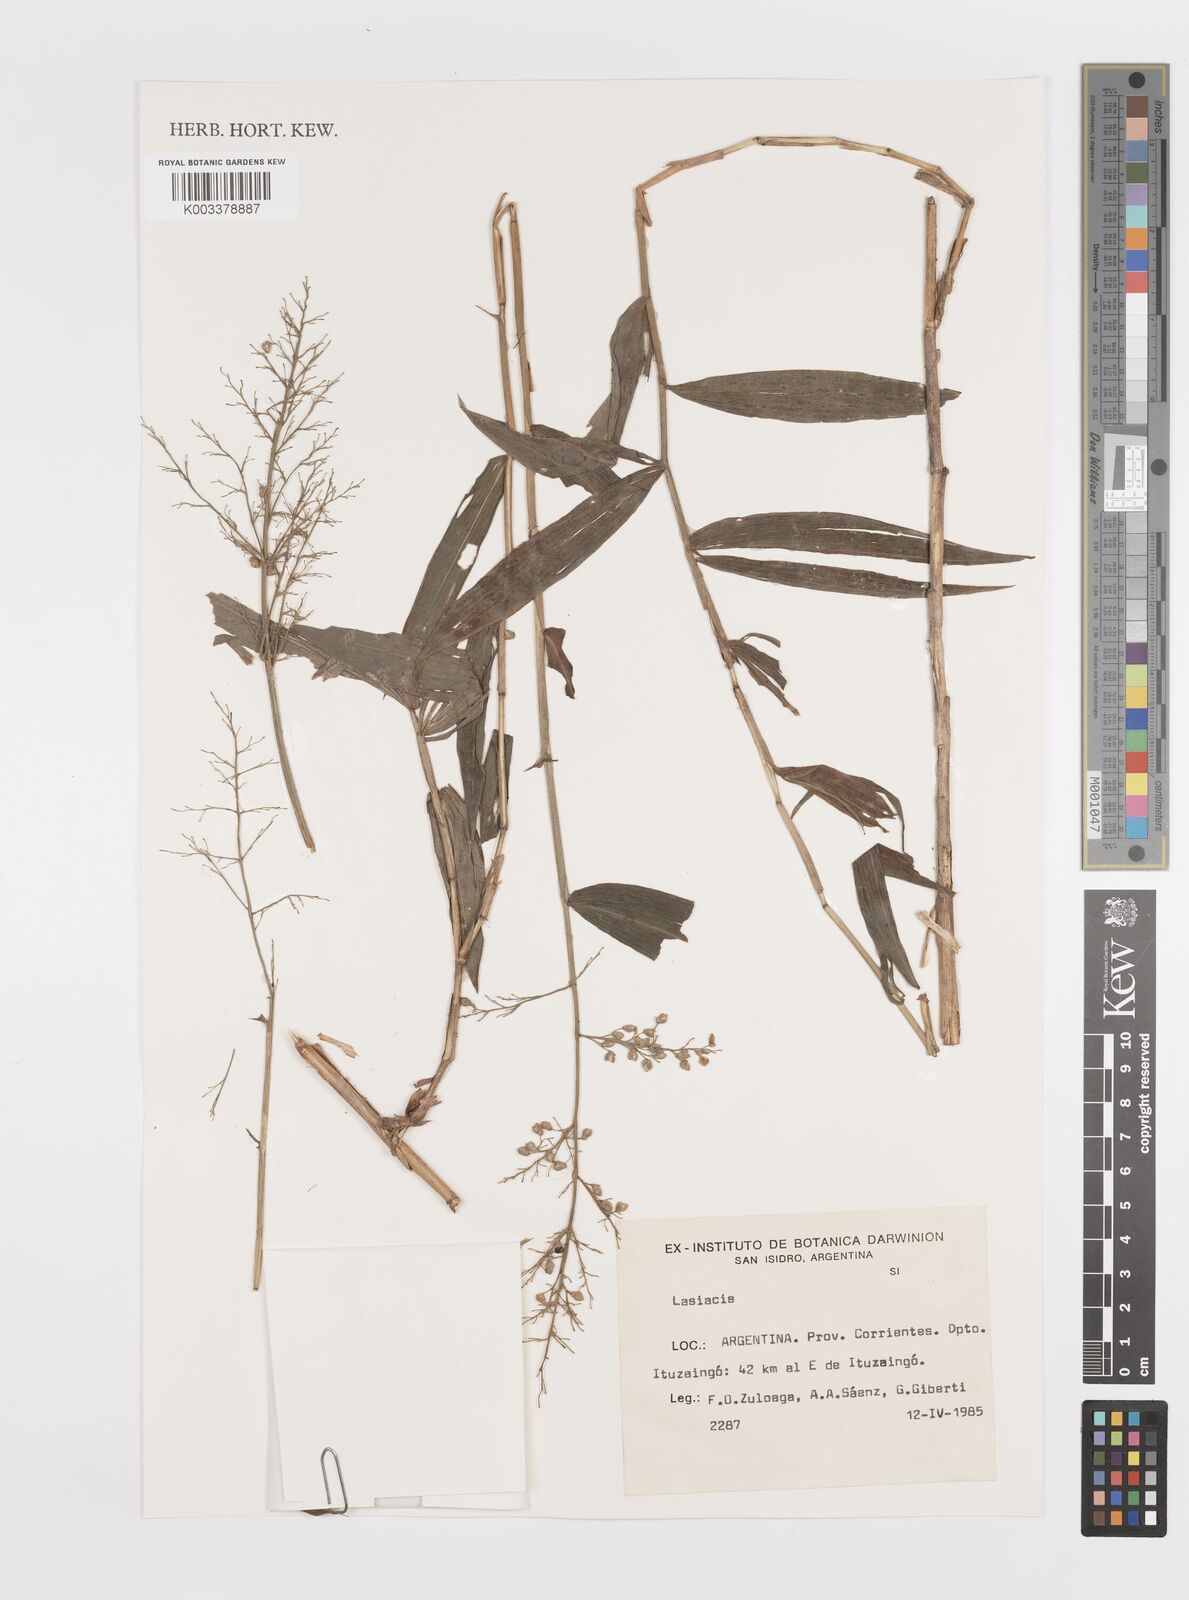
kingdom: Plantae
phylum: Tracheophyta
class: Liliopsida
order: Poales
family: Poaceae
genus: Lasiacis
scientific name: Lasiacis maculata
